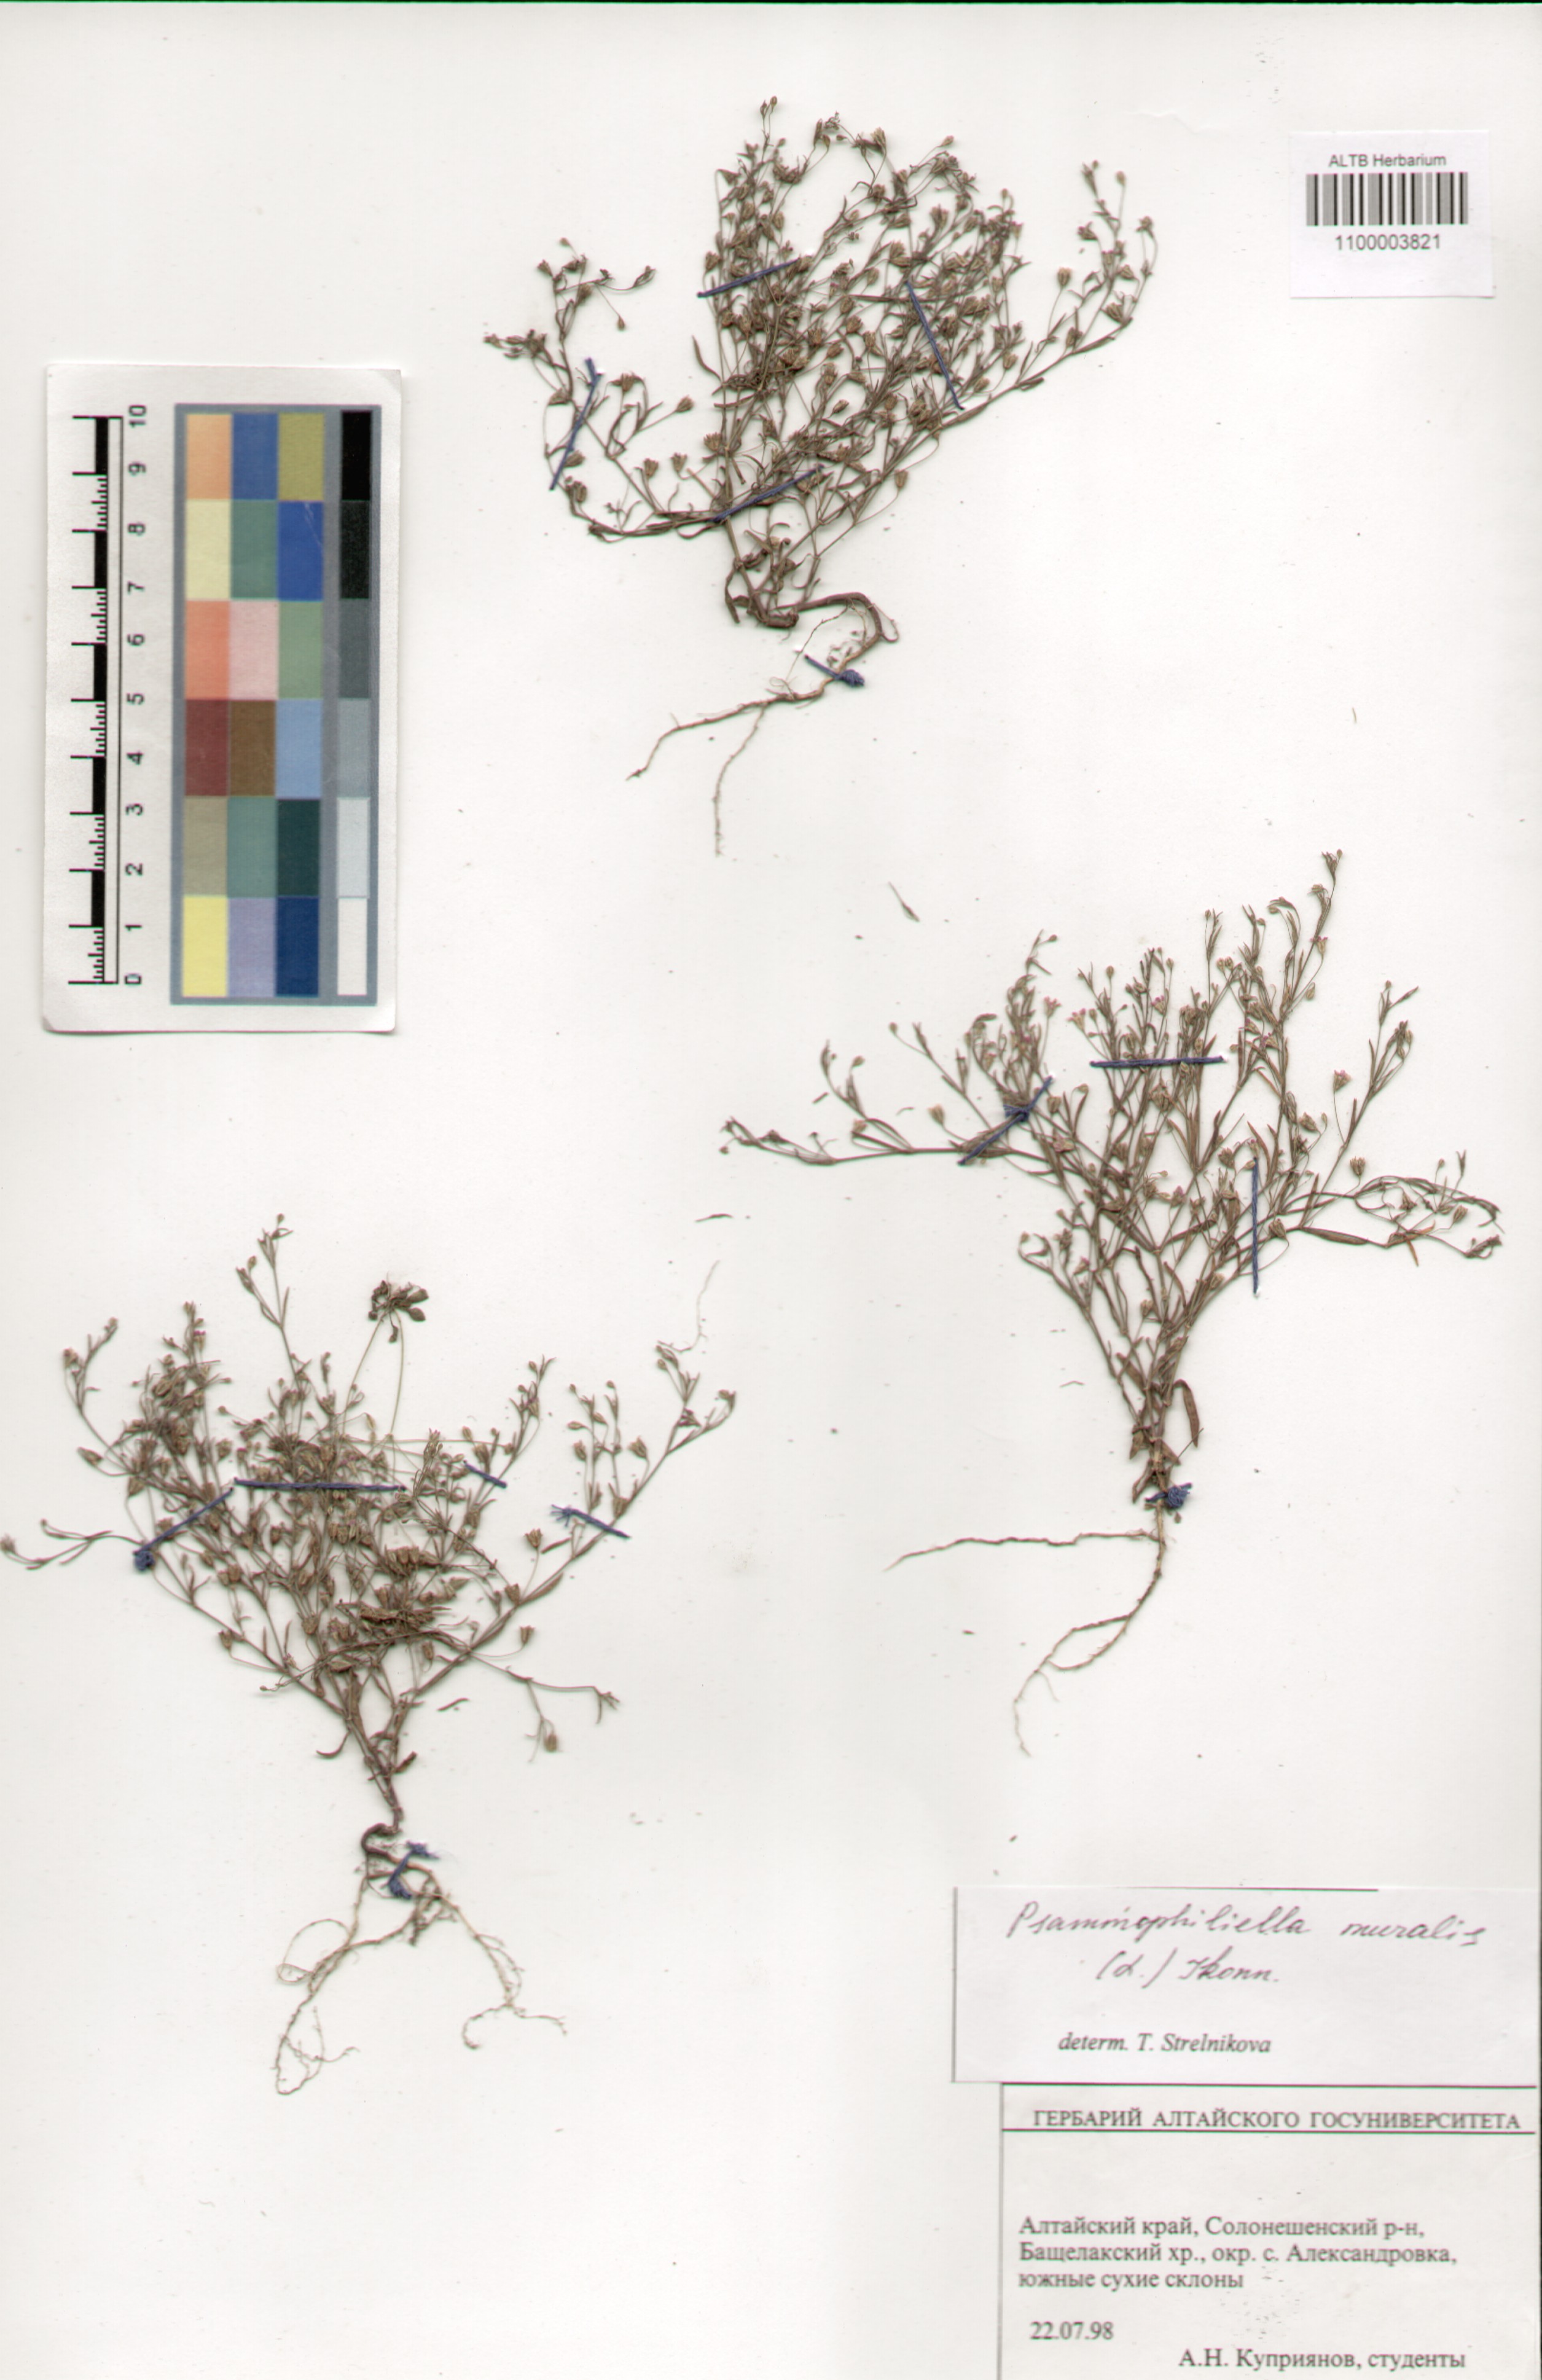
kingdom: Plantae
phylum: Tracheophyta
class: Magnoliopsida
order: Caryophyllales
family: Caryophyllaceae
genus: Psammophiliella
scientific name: Psammophiliella muralis
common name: Cushion baby's-breath
